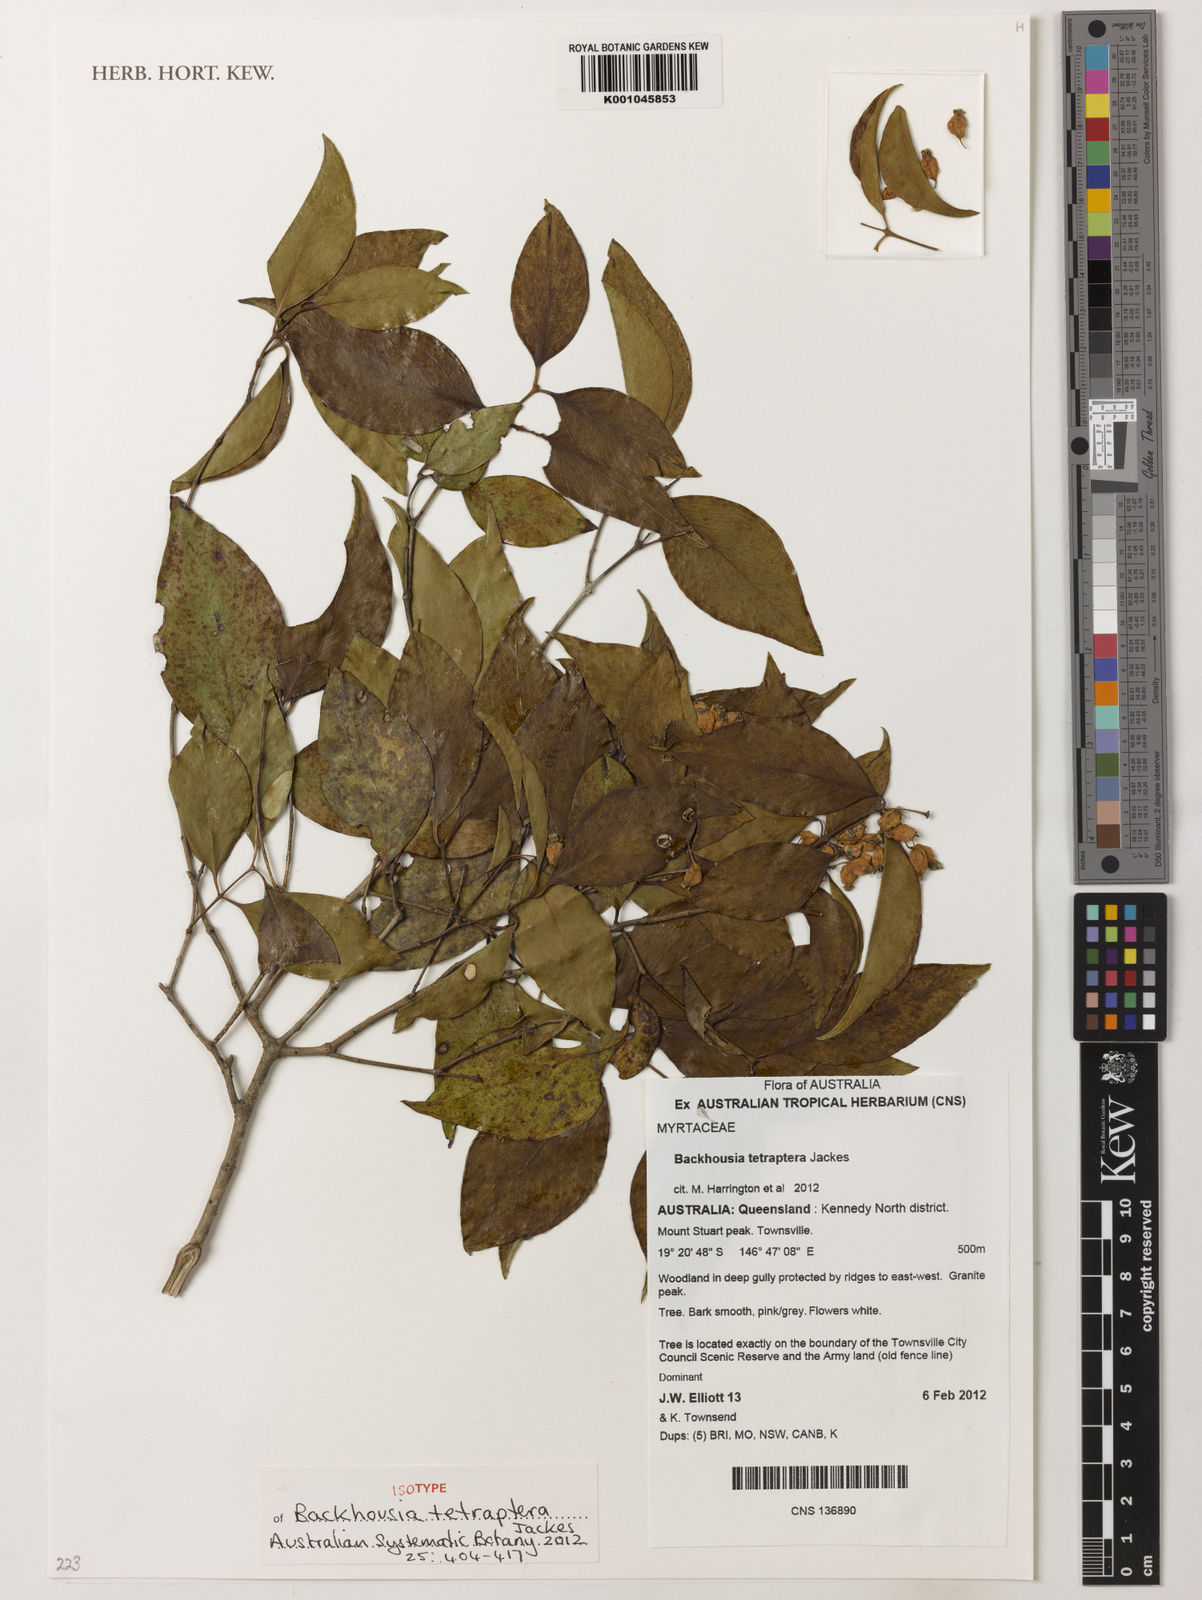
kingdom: Plantae
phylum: Tracheophyta
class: Magnoliopsida
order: Myrtales
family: Myrtaceae
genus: Backhousia
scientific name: Backhousia tetraptera
